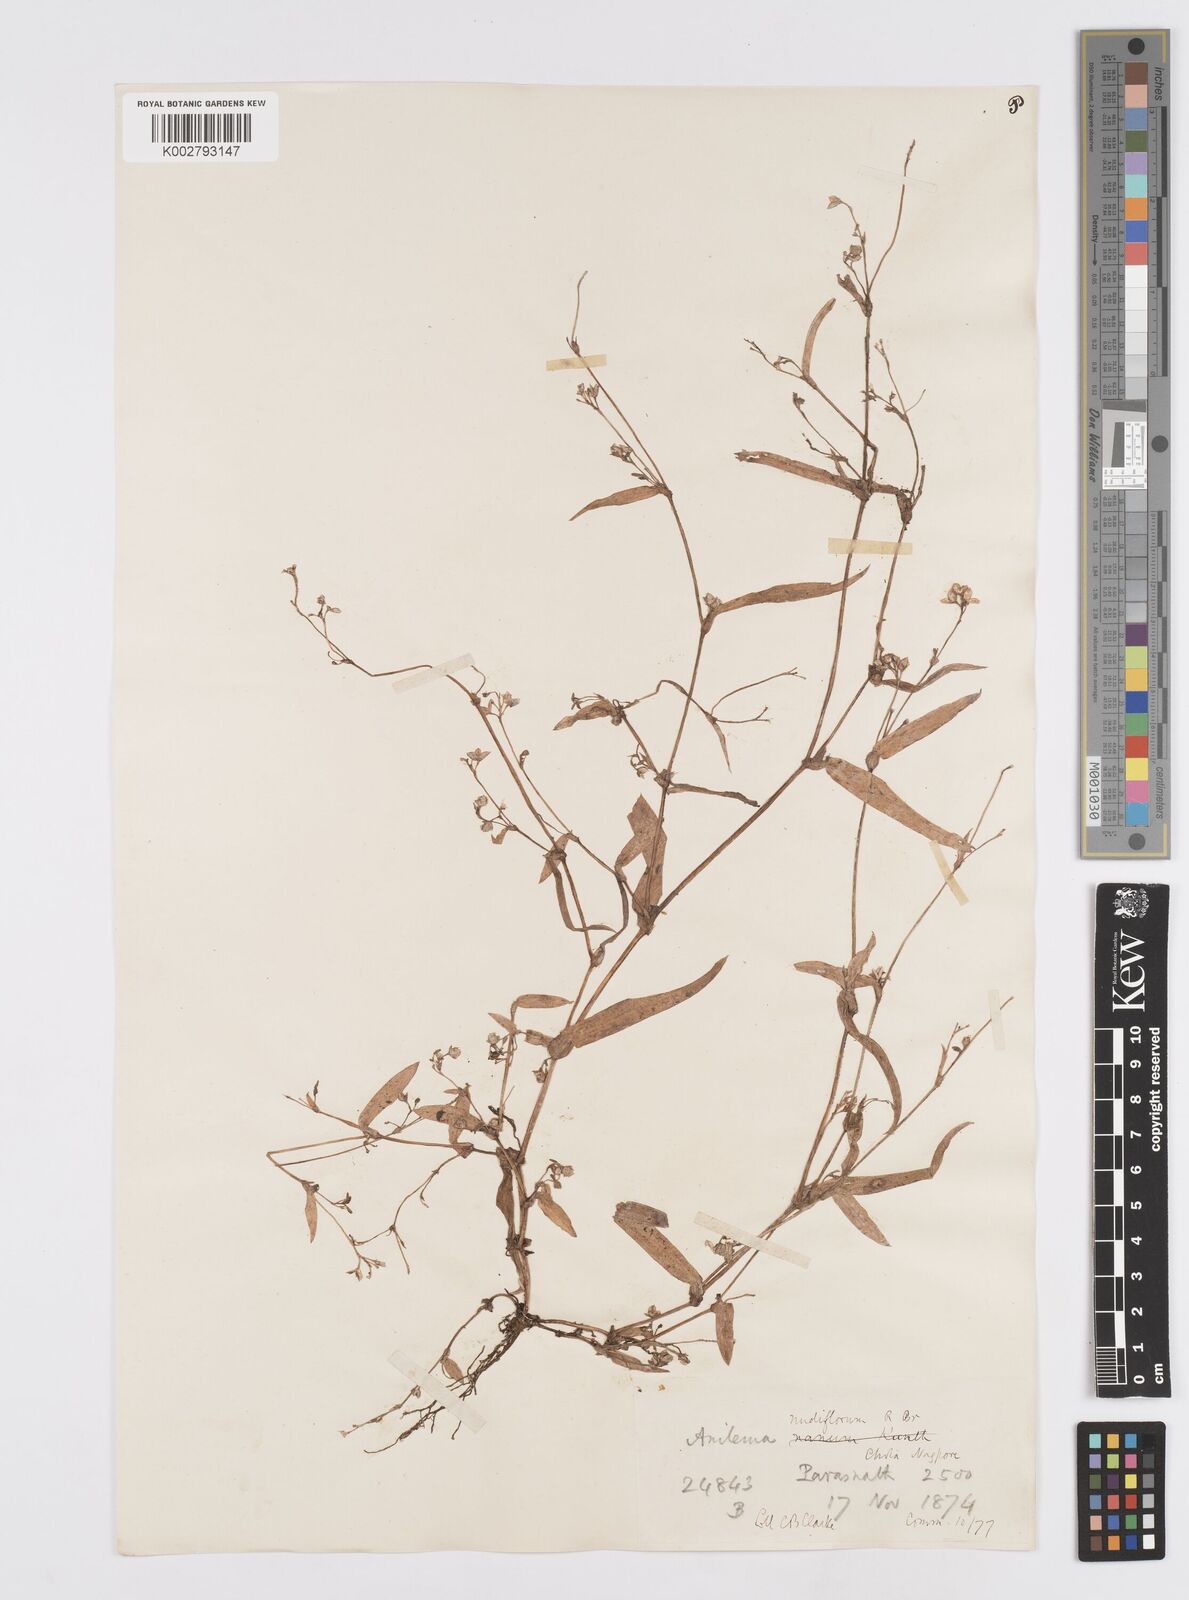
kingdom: Plantae
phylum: Tracheophyta
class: Liliopsida
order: Commelinales
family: Commelinaceae
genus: Murdannia
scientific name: Murdannia nudiflora
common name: Nakedstem dewflower
